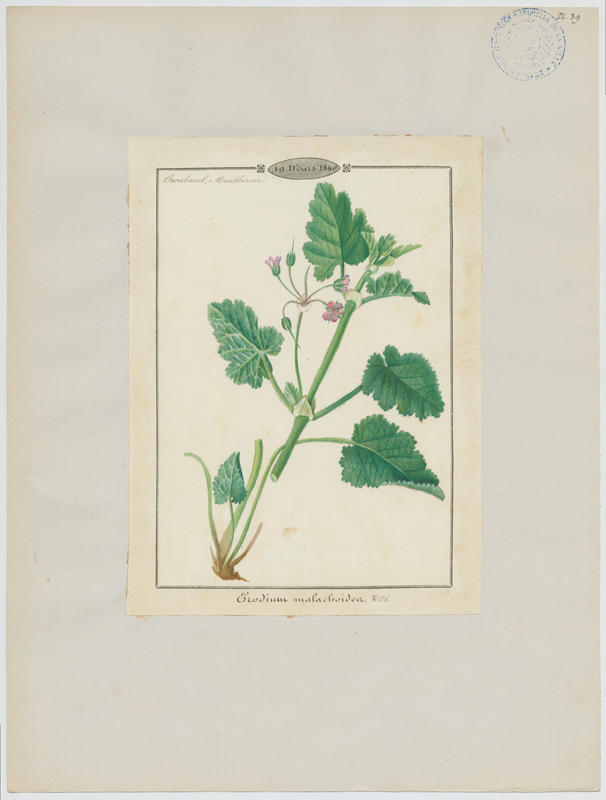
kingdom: Plantae
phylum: Tracheophyta
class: Magnoliopsida
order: Geraniales
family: Geraniaceae
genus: Erodium
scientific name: Erodium malacoides
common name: Soft stork's-bill
